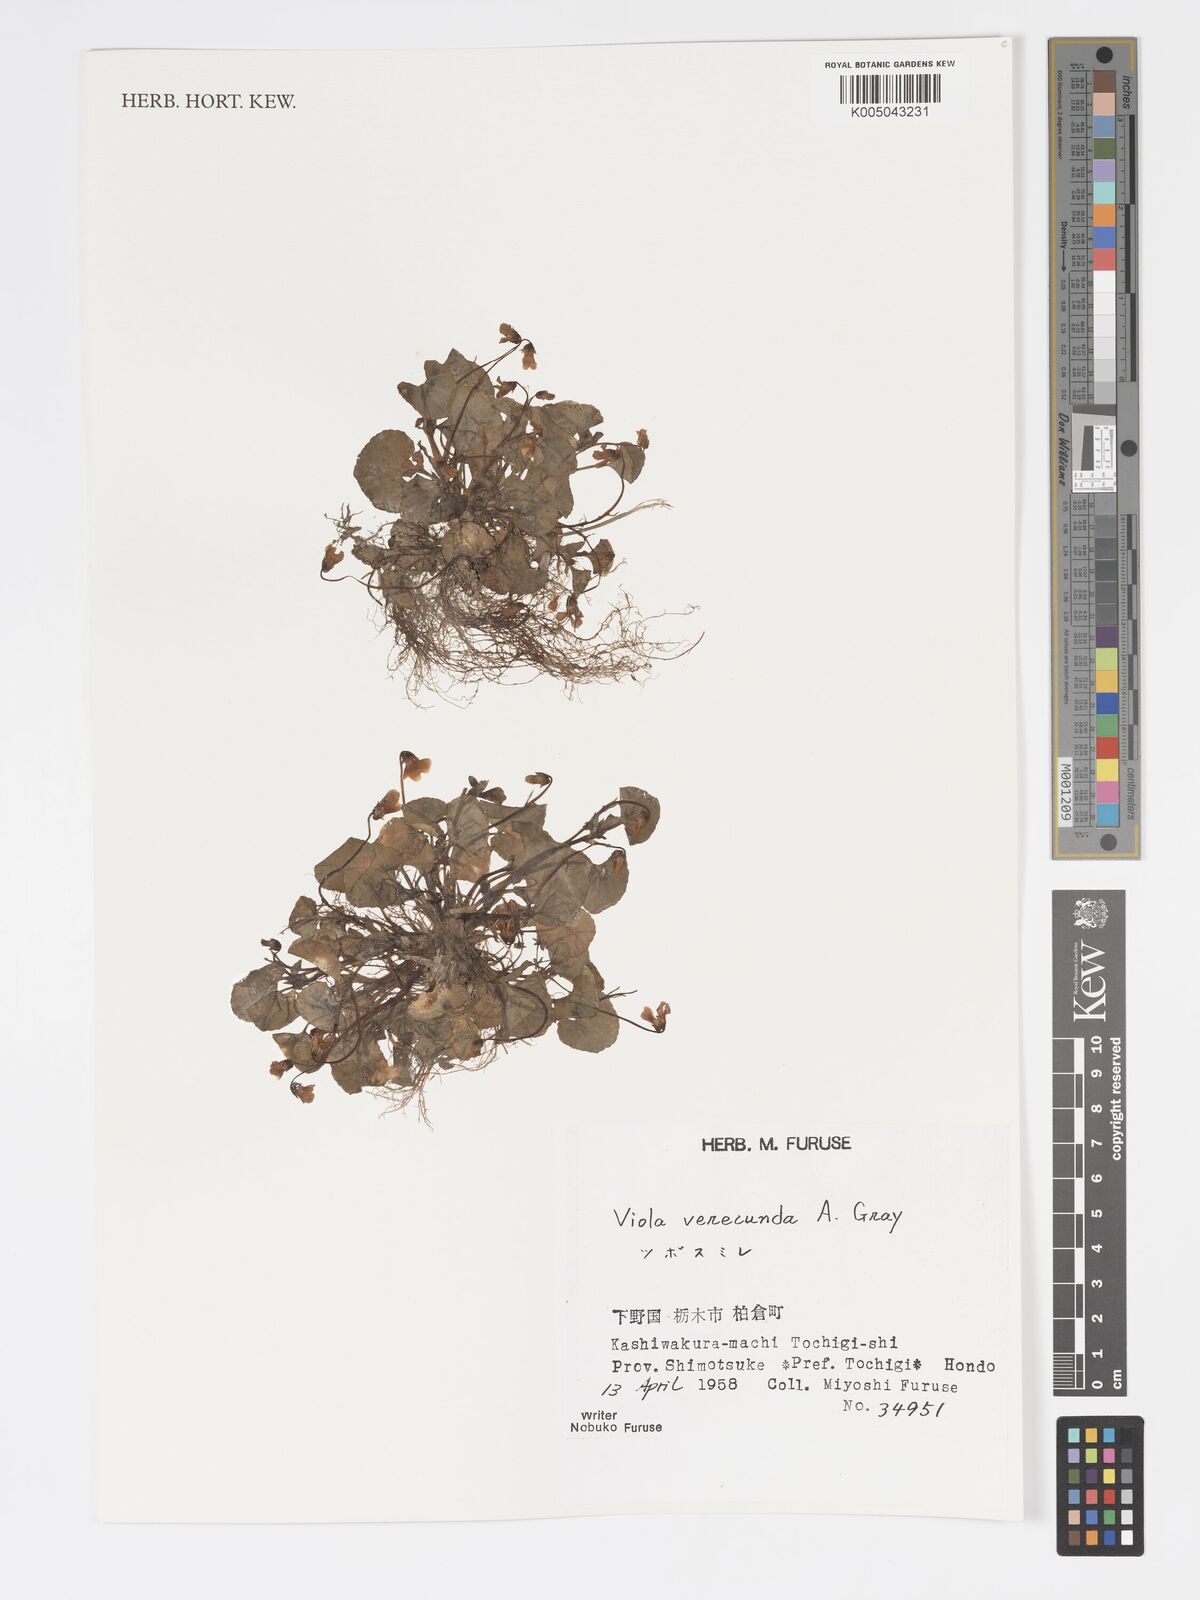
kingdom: Plantae
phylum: Tracheophyta
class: Magnoliopsida
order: Malpighiales
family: Violaceae
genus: Viola
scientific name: Viola hamiltoniana
